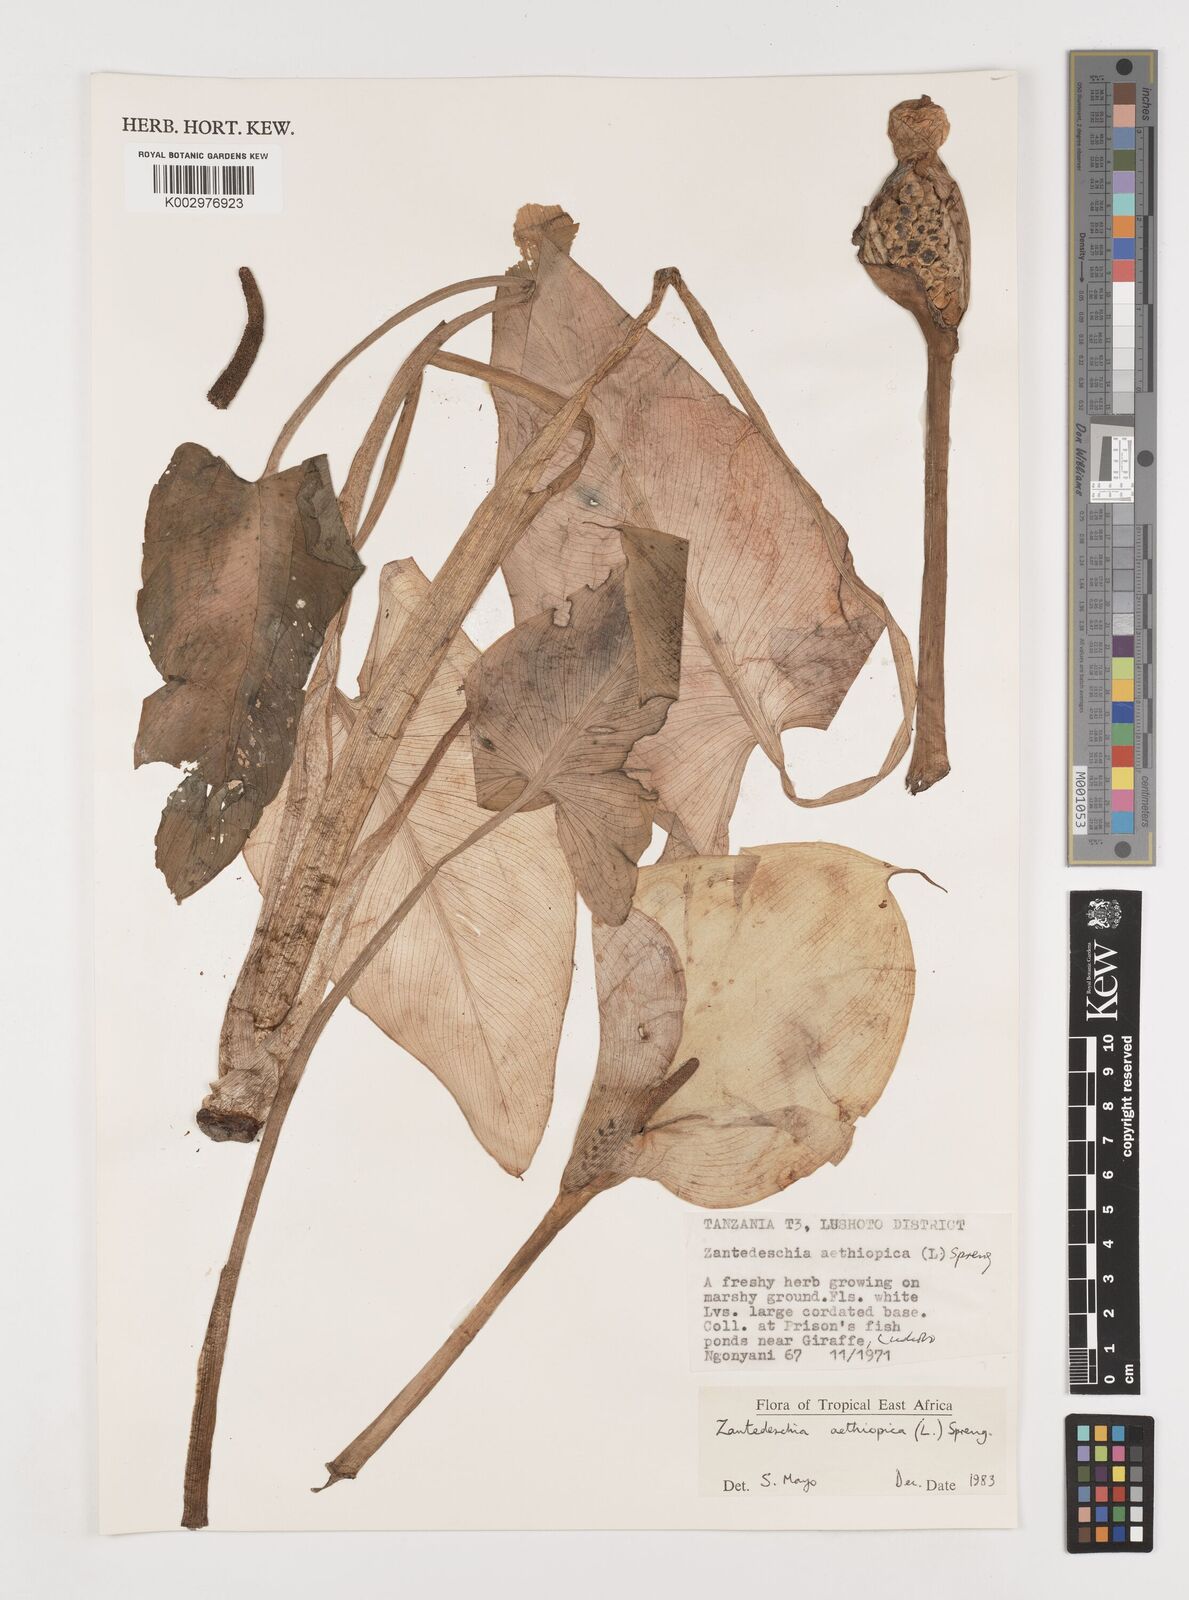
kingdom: Plantae
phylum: Tracheophyta
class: Liliopsida
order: Alismatales
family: Araceae
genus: Zantedeschia
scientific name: Zantedeschia aethiopica
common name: Altar-lily
